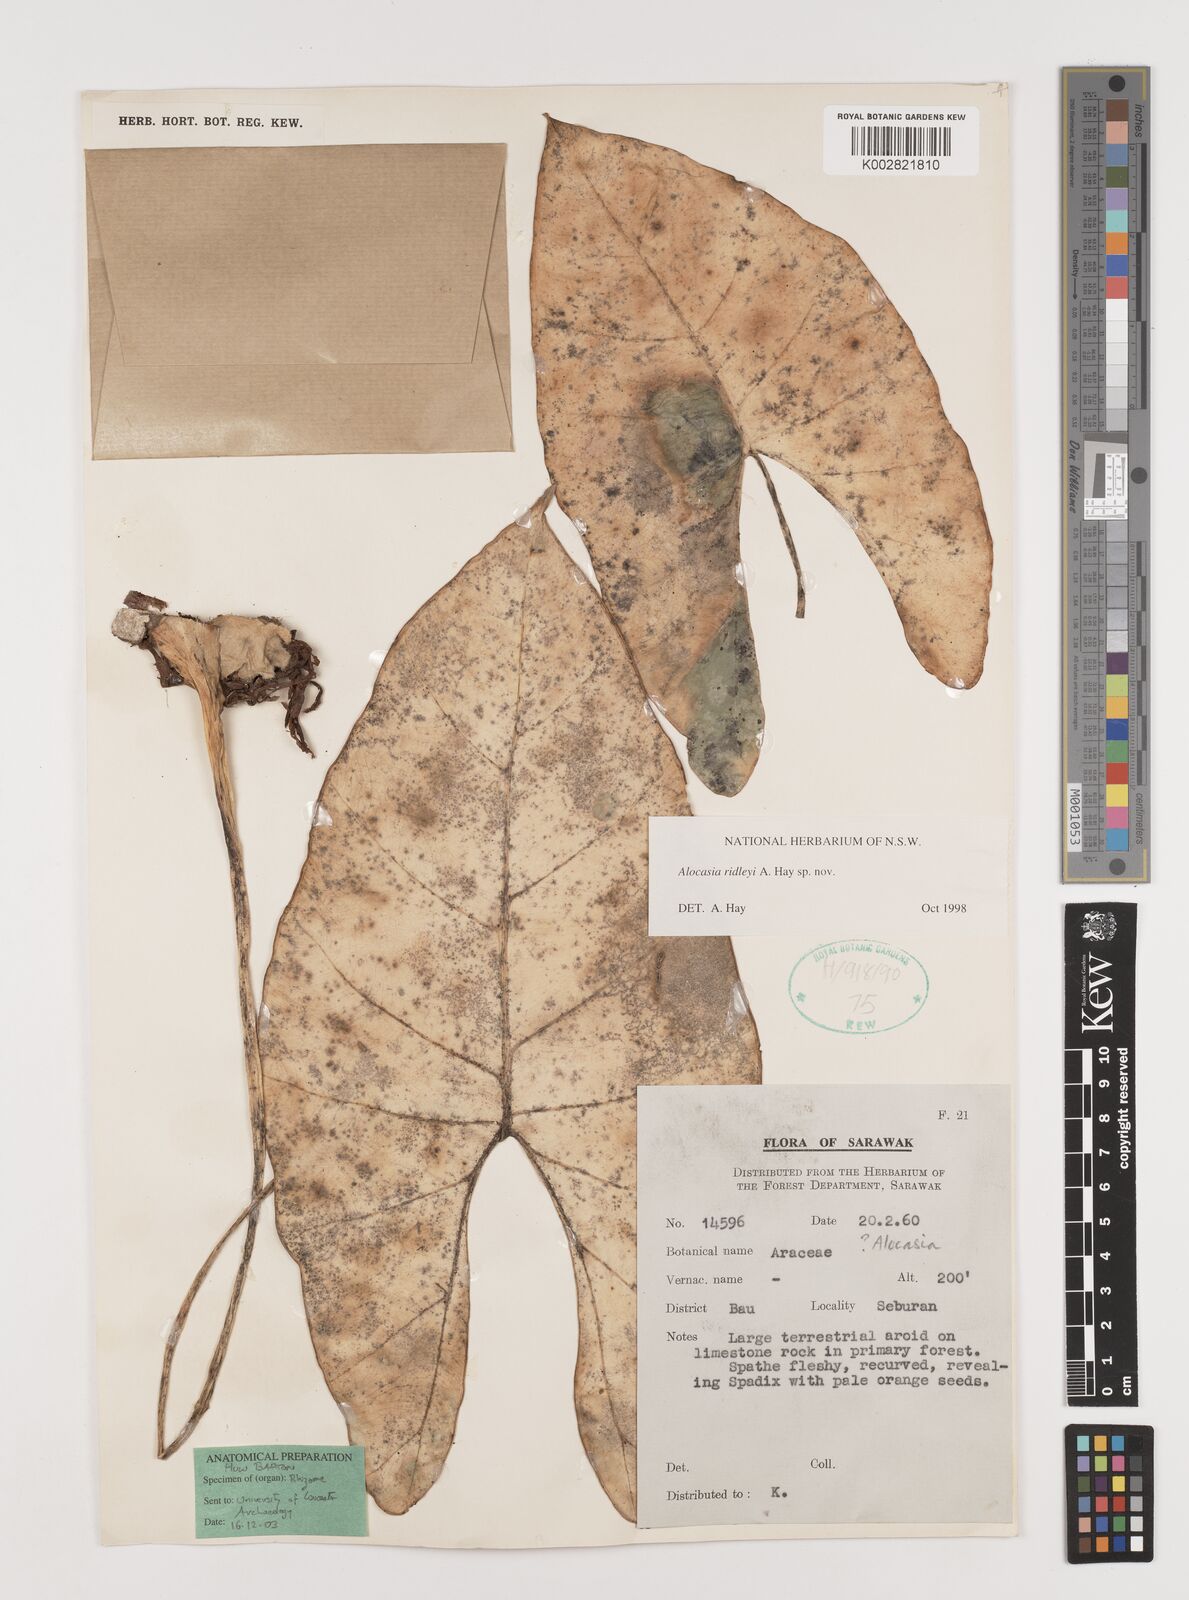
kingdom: Plantae
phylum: Tracheophyta
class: Liliopsida
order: Alismatales
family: Araceae
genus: Alocasia
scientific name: Alocasia ridleyi
